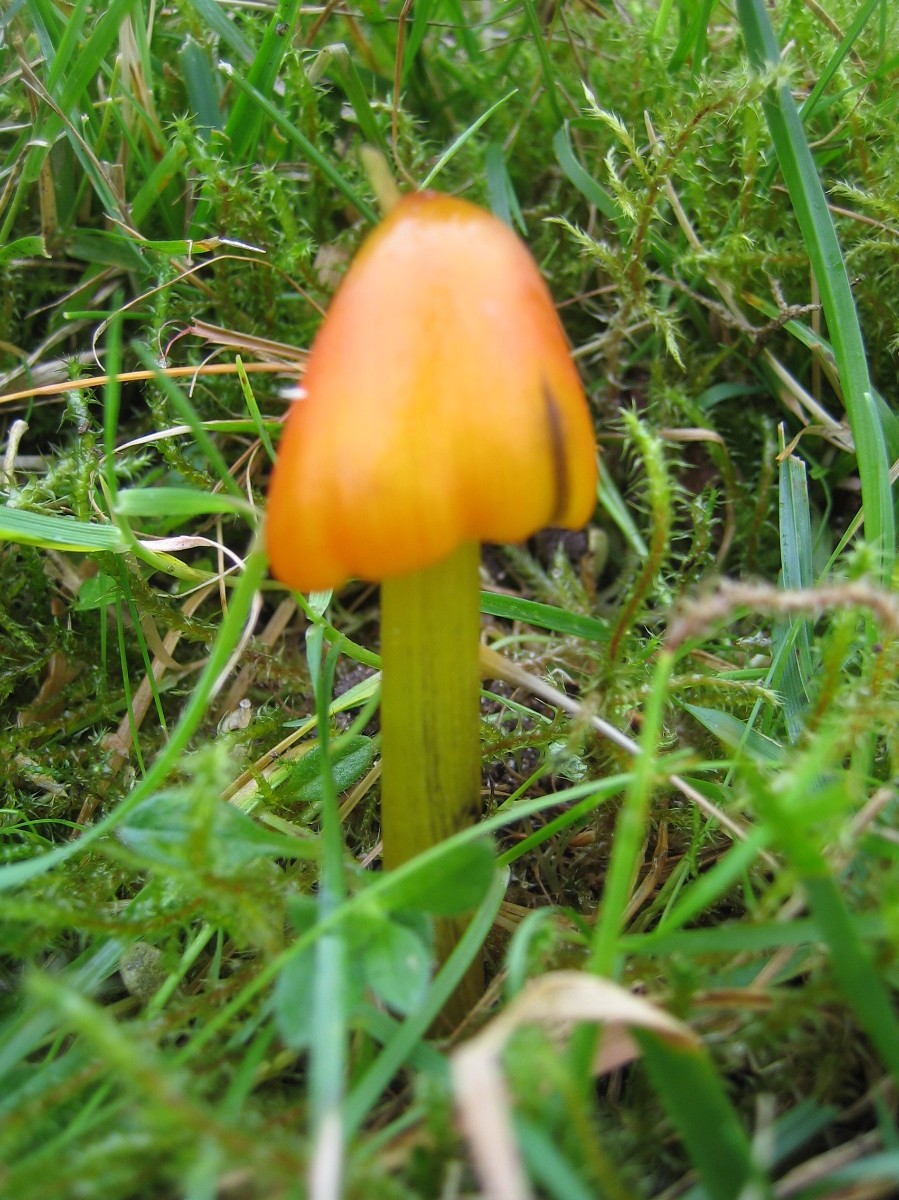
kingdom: Fungi
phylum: Basidiomycota
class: Agaricomycetes
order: Agaricales
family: Hygrophoraceae
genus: Hygrocybe
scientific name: Hygrocybe conica
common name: kegle-vokshat
